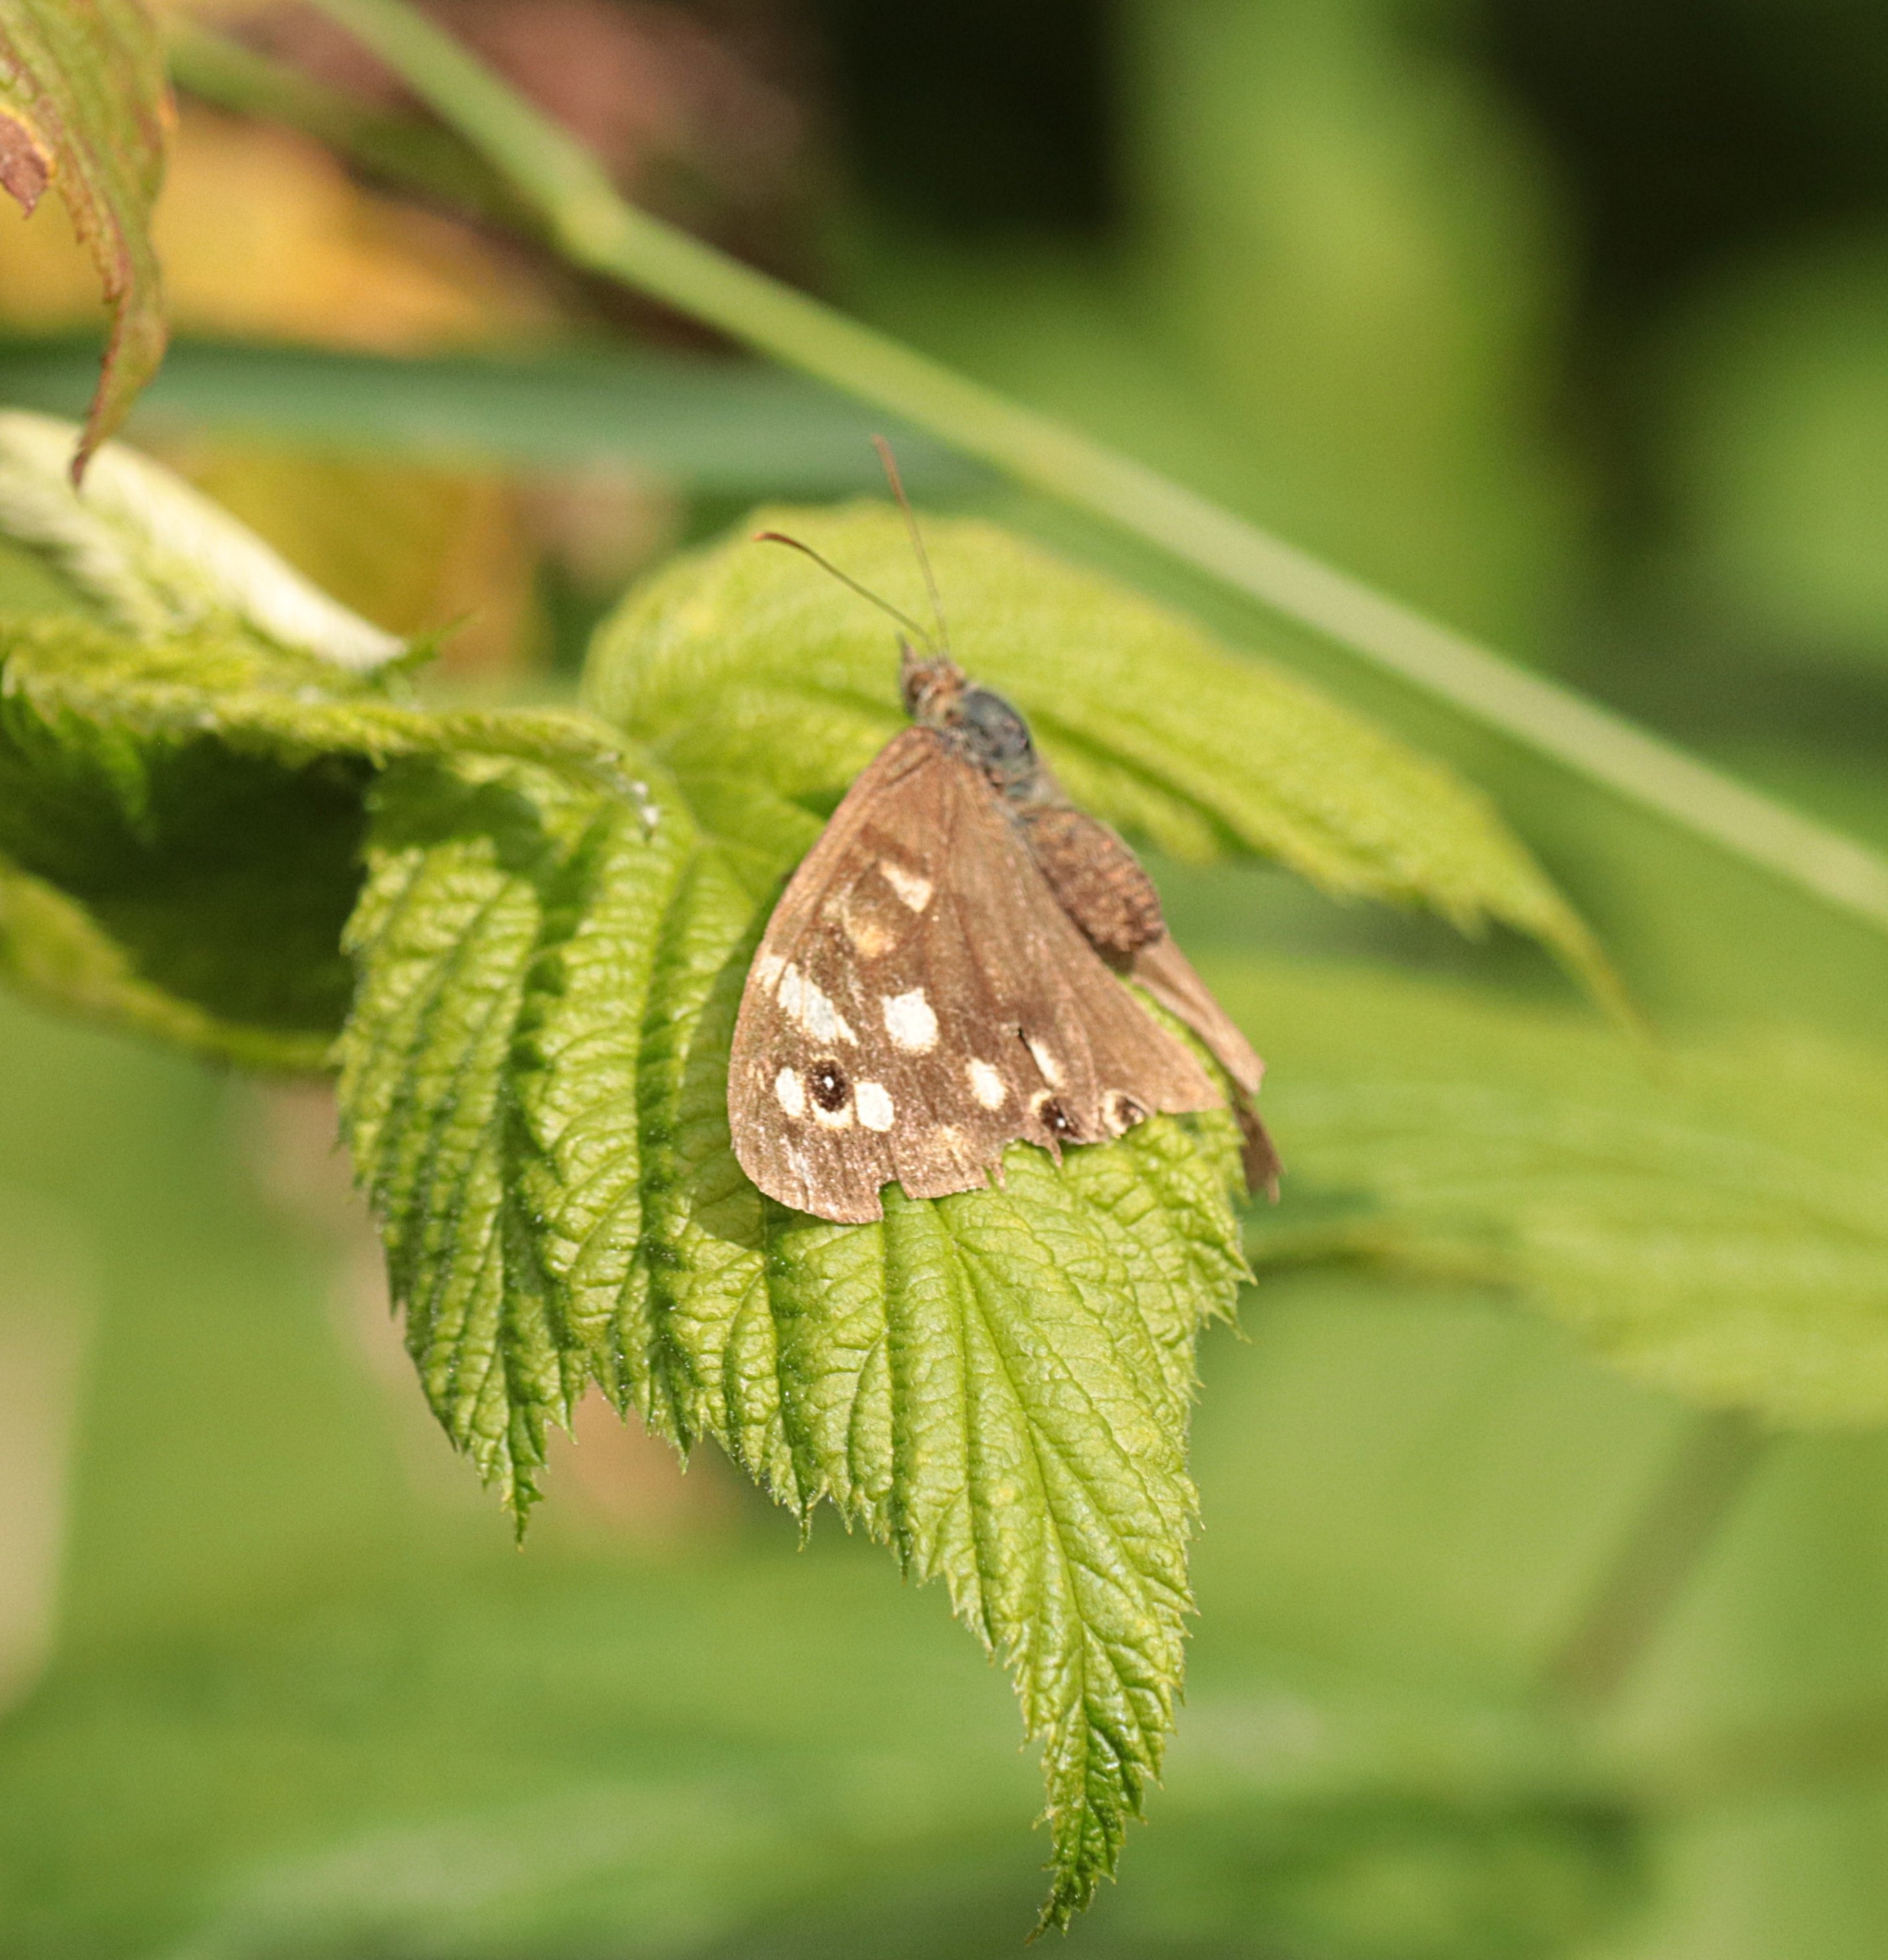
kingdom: Animalia
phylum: Arthropoda
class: Insecta
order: Lepidoptera
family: Nymphalidae
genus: Pararge
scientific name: Pararge aegeria
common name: Skovrandøje
